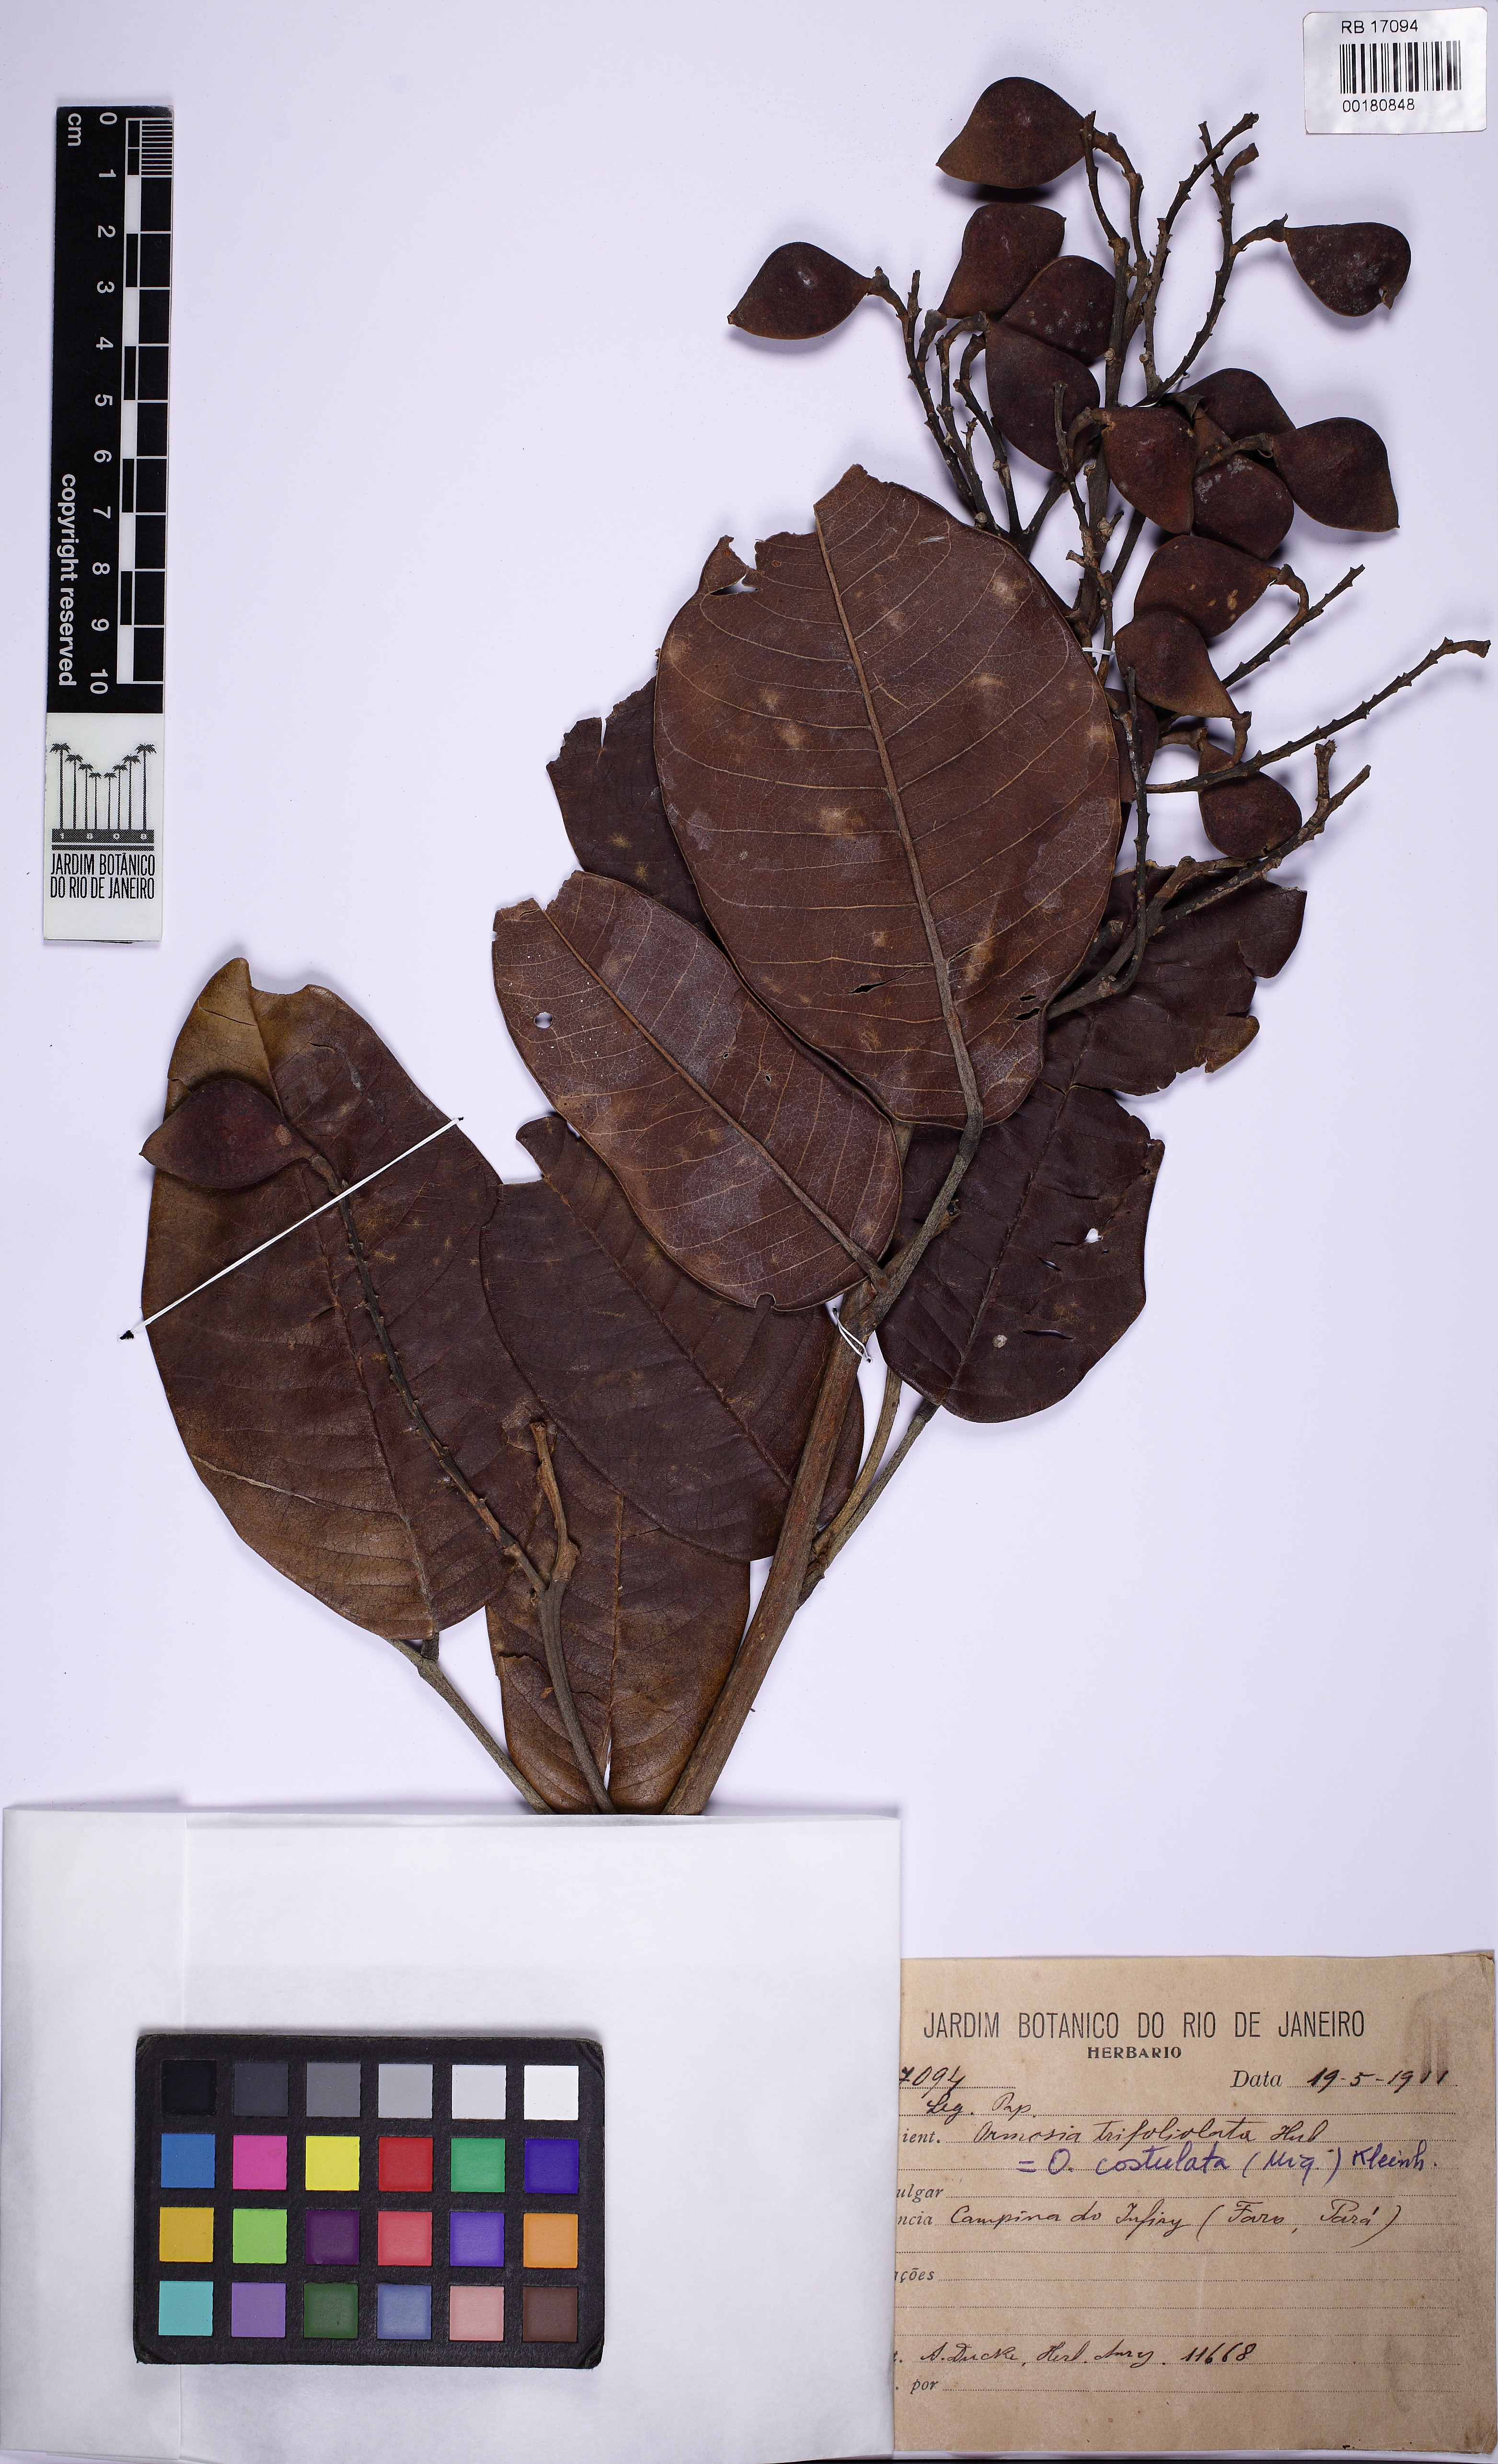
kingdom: Plantae
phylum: Tracheophyta
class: Magnoliopsida
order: Fabales
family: Fabaceae
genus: Ormosia
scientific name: Ormosia trifoliolata
